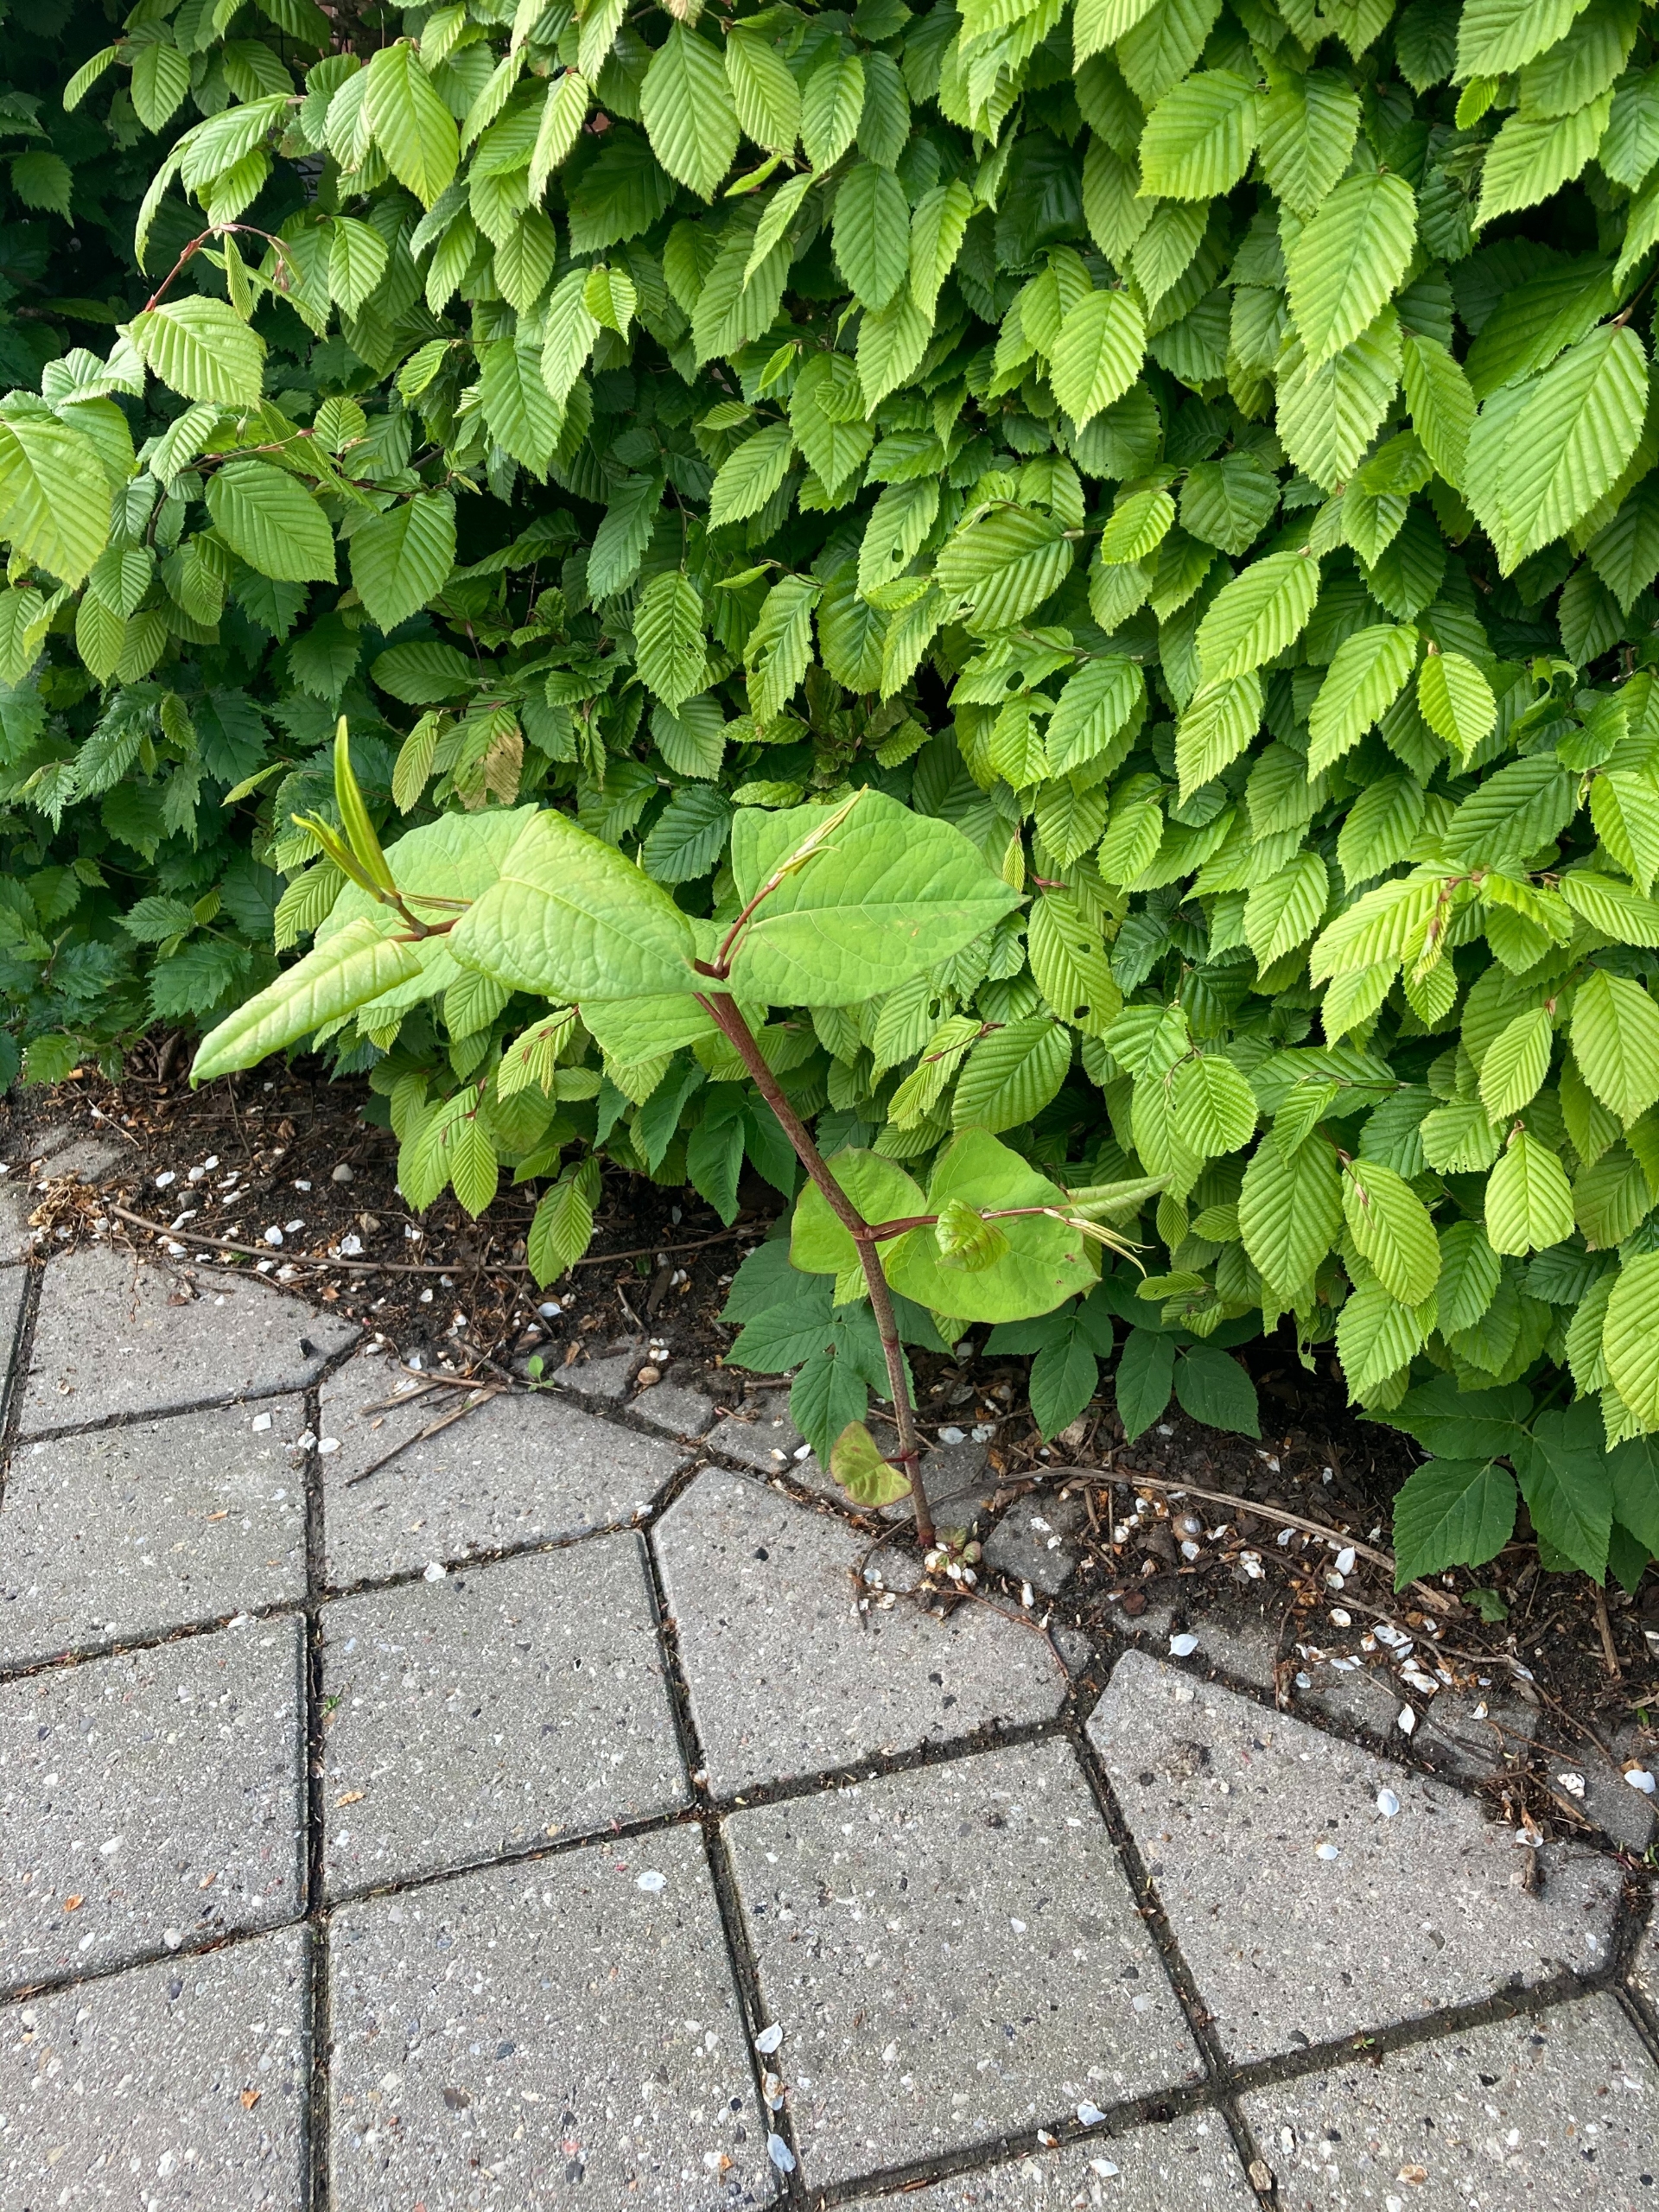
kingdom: Plantae
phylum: Tracheophyta
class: Magnoliopsida
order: Caryophyllales
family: Polygonaceae
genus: Reynoutria
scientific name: Reynoutria japonica
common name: Japan-pileurt
